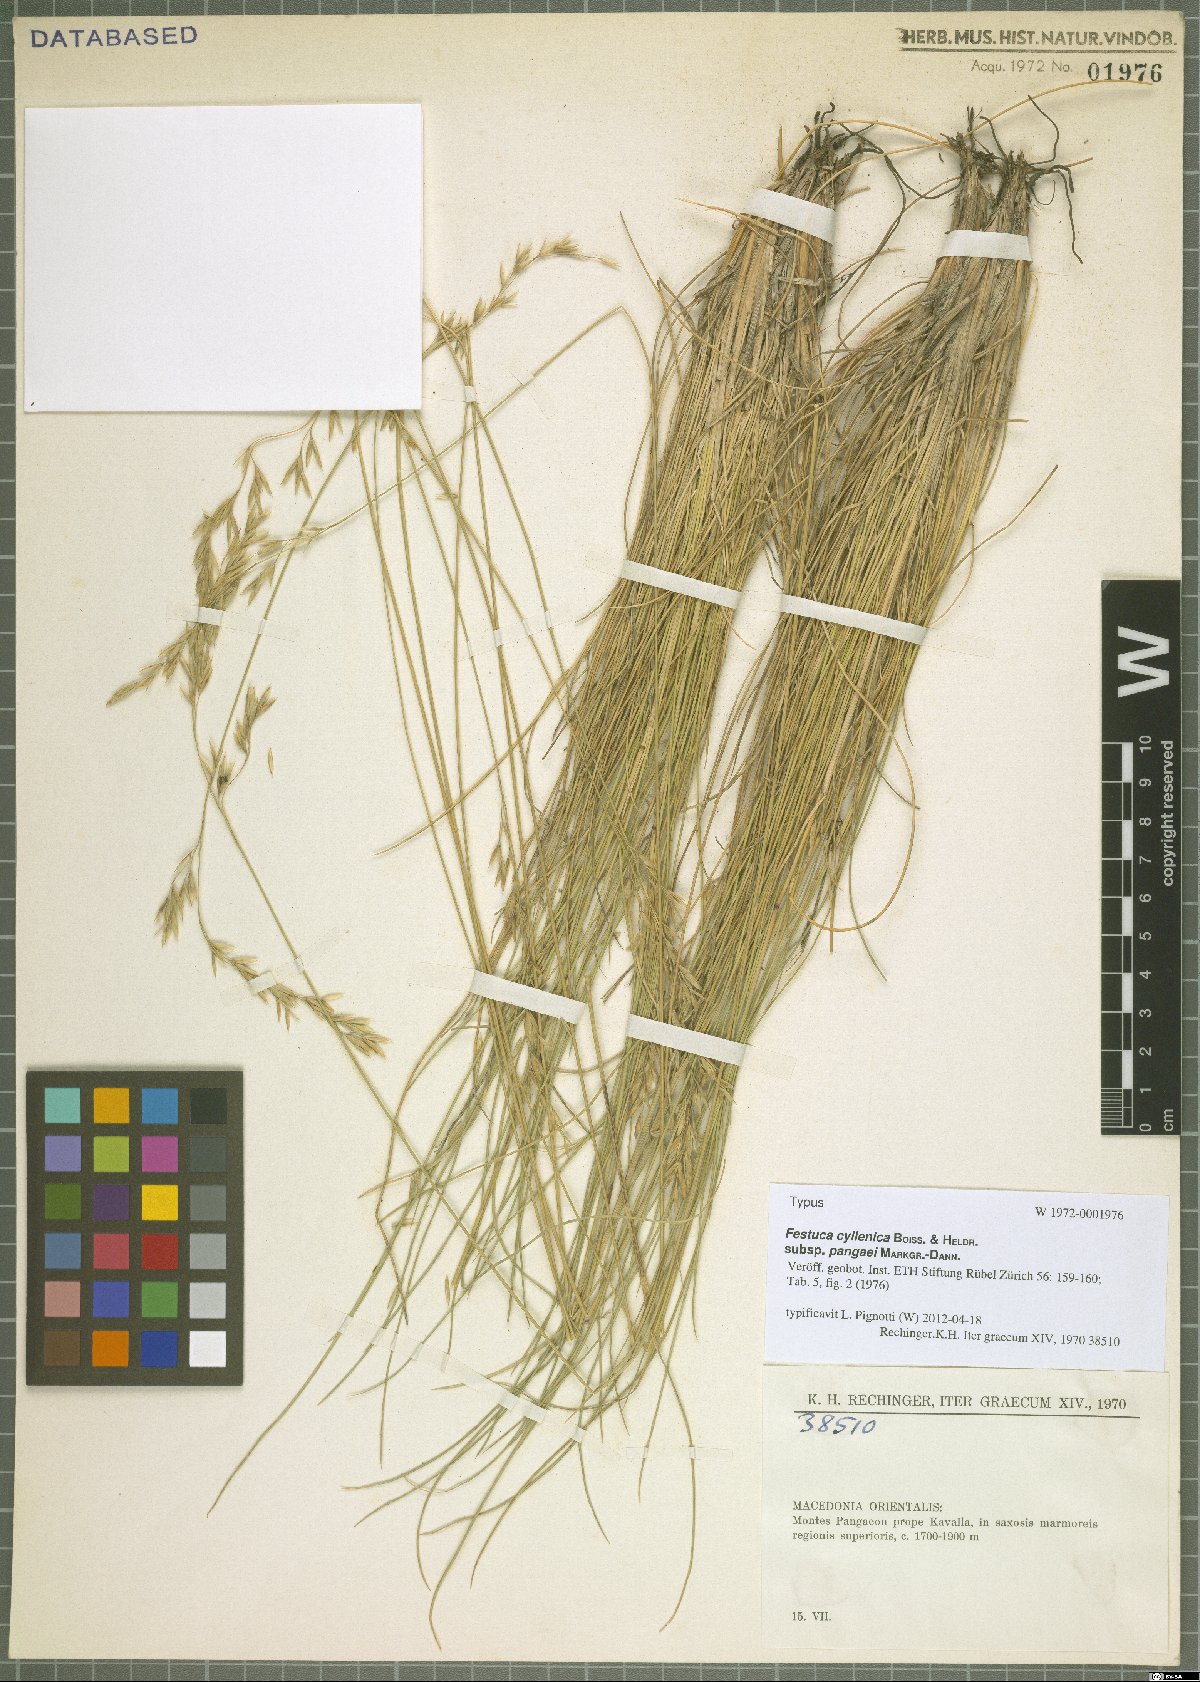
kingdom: Plantae
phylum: Tracheophyta
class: Liliopsida
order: Poales
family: Poaceae
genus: Festuca
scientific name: Festuca cyllenica
